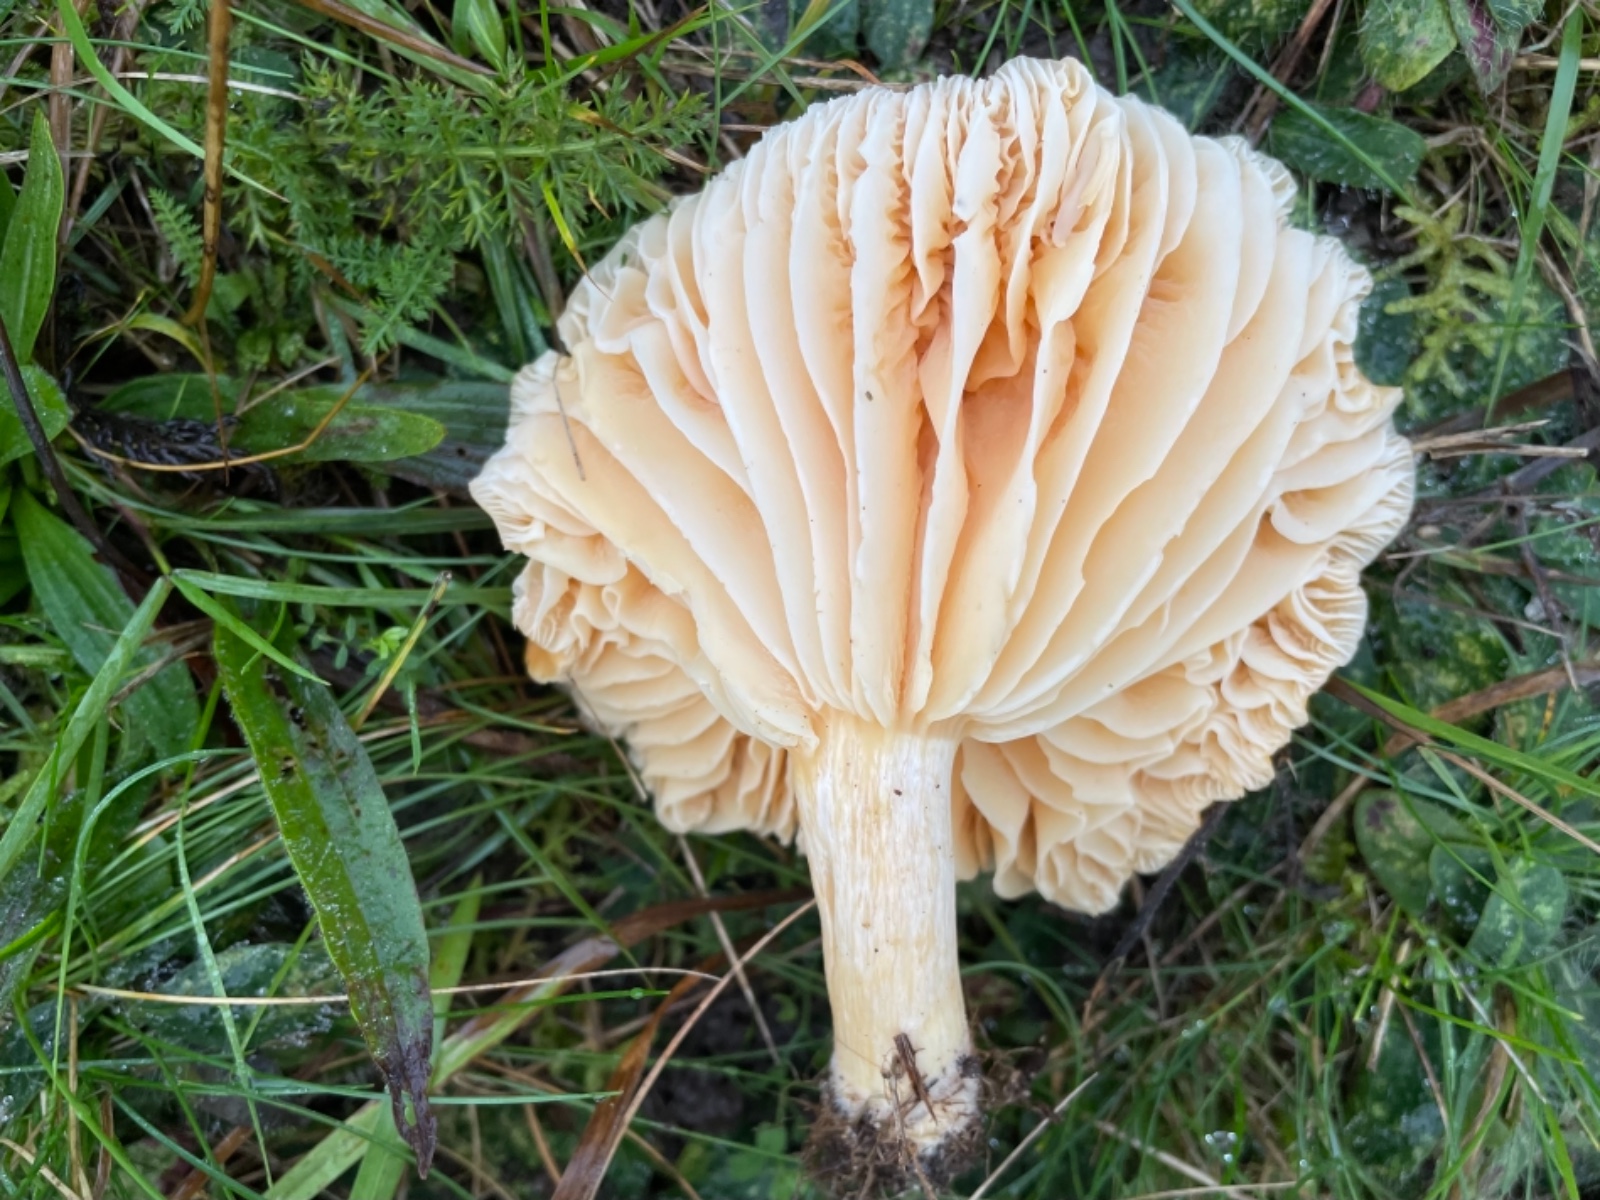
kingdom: Fungi
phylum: Basidiomycota
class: Agaricomycetes
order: Agaricales
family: Hygrophoraceae
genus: Cuphophyllus
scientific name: Cuphophyllus pratensis
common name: eng-vokshat
